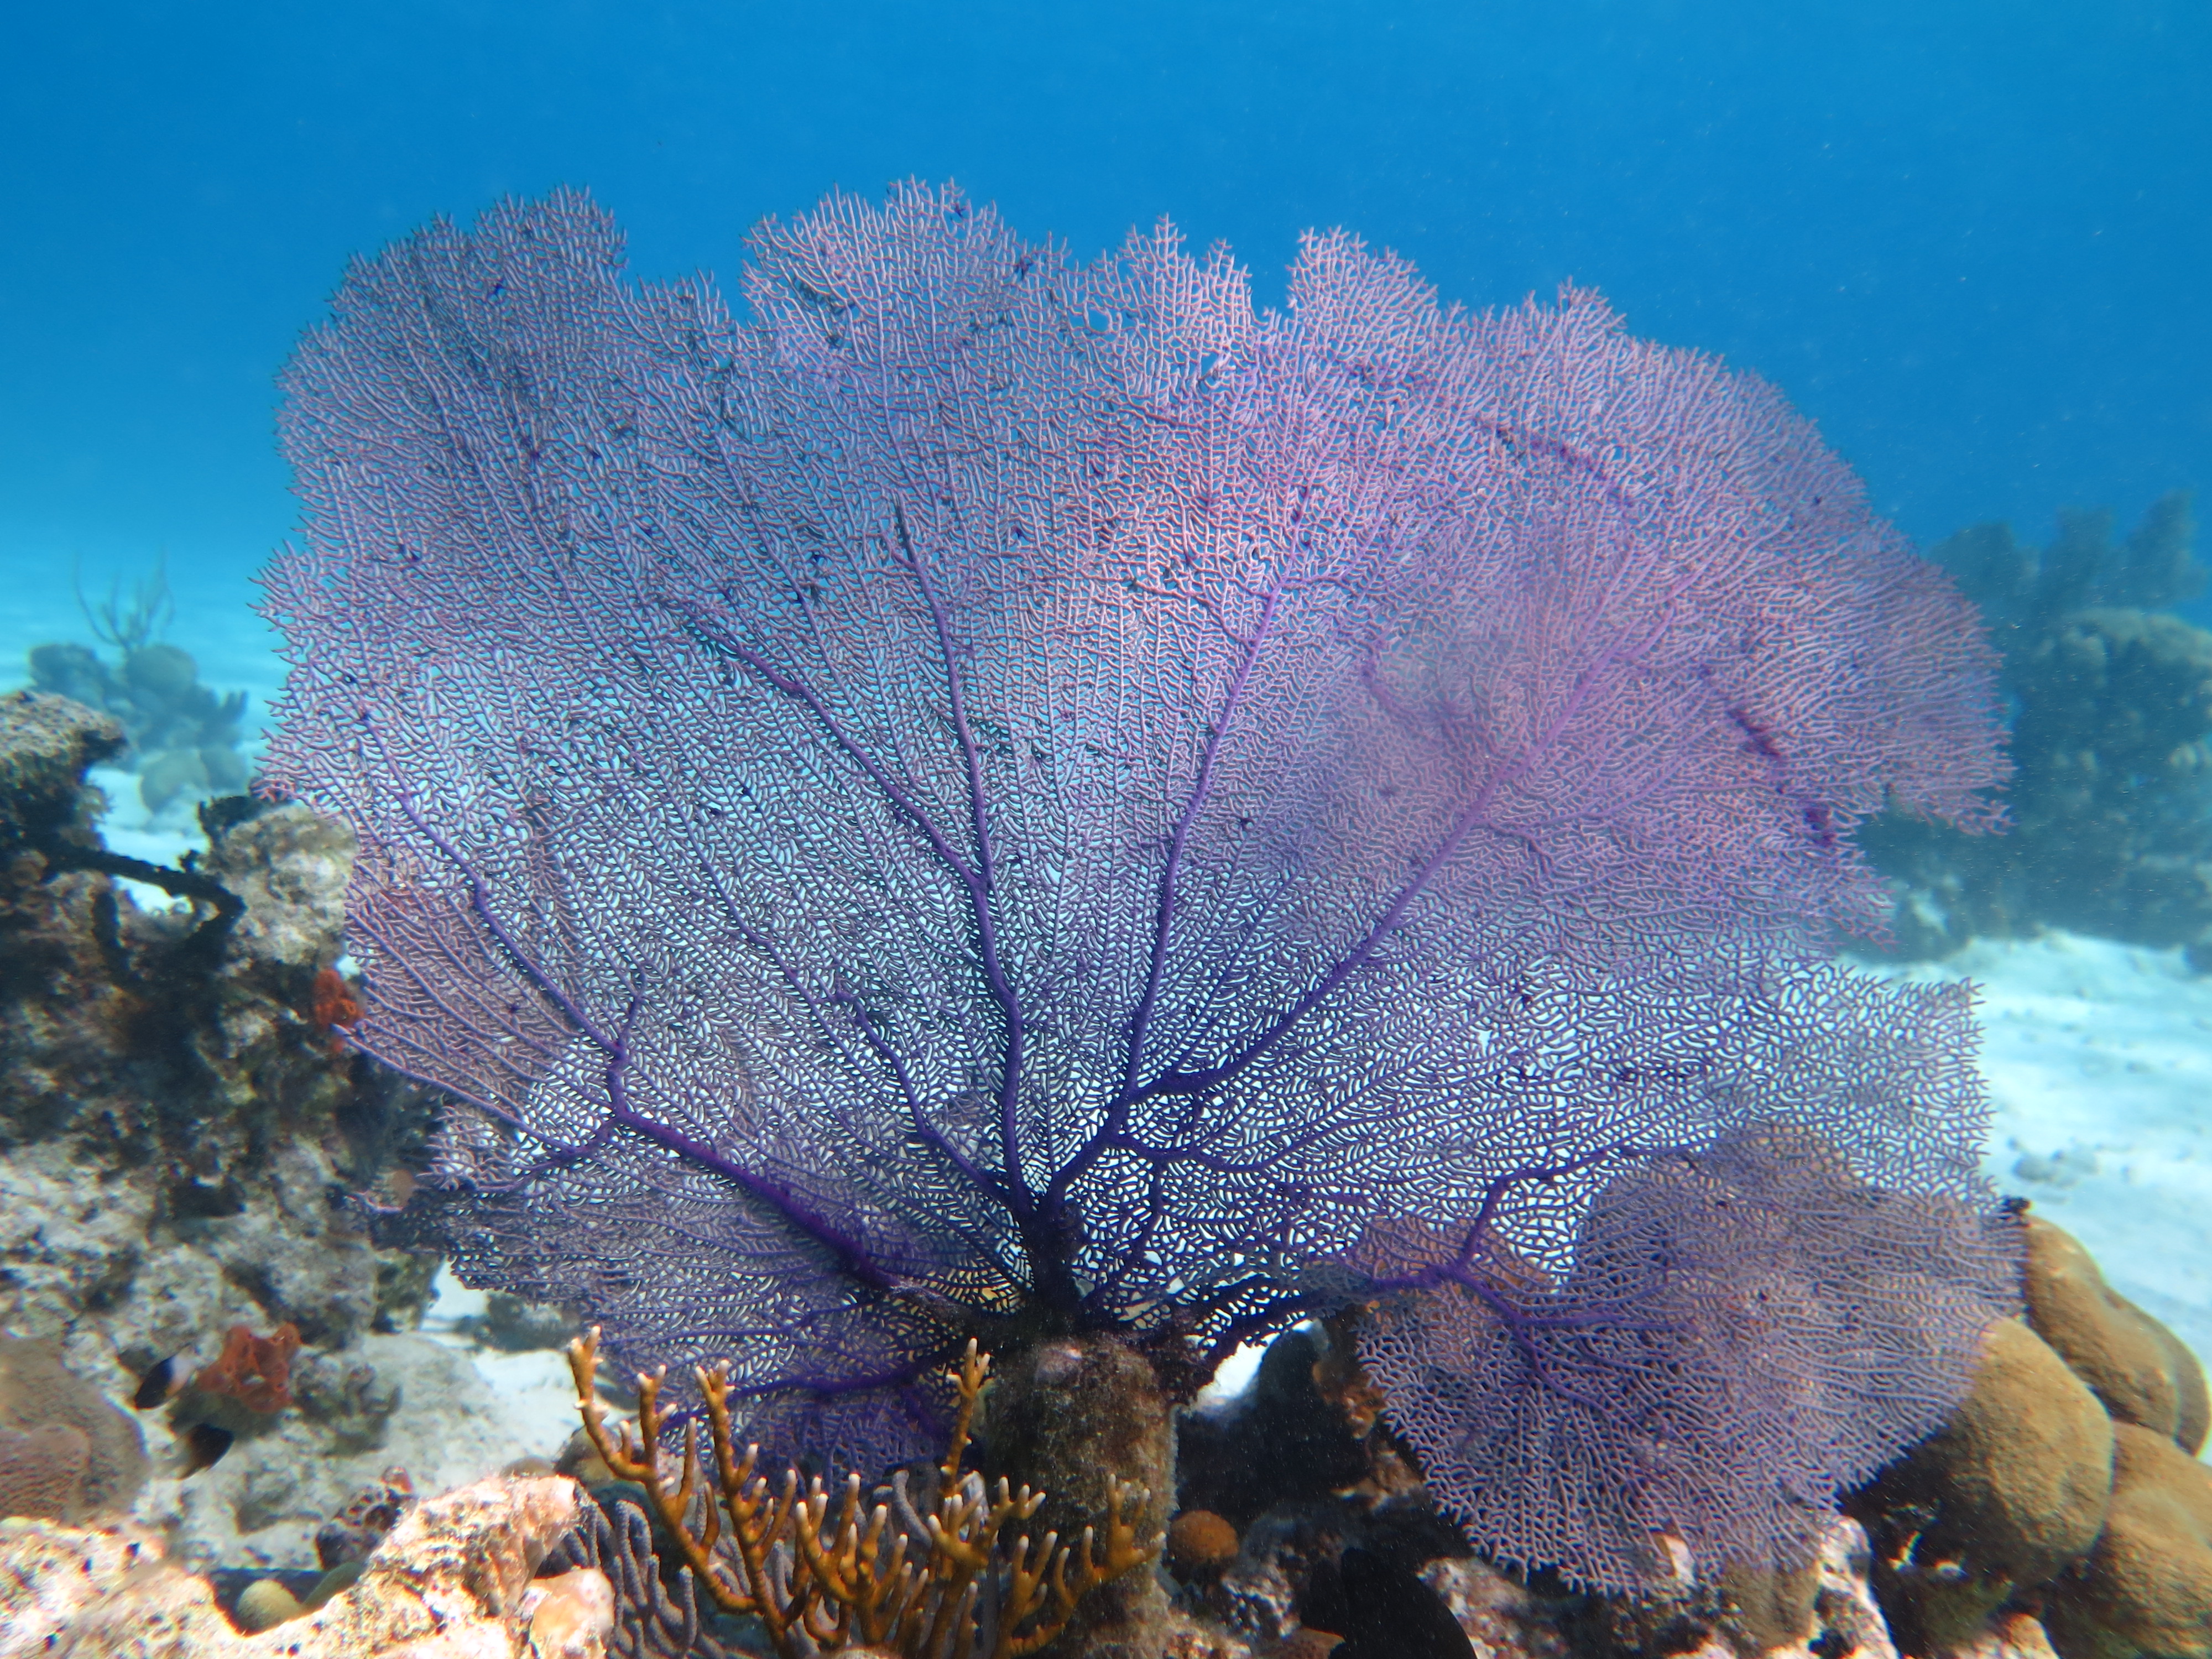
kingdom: Animalia
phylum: Cnidaria
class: Anthozoa
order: Malacalcyonacea
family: Gorgoniidae
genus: Gorgonia
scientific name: Gorgonia ventalina
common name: Common sea fan
